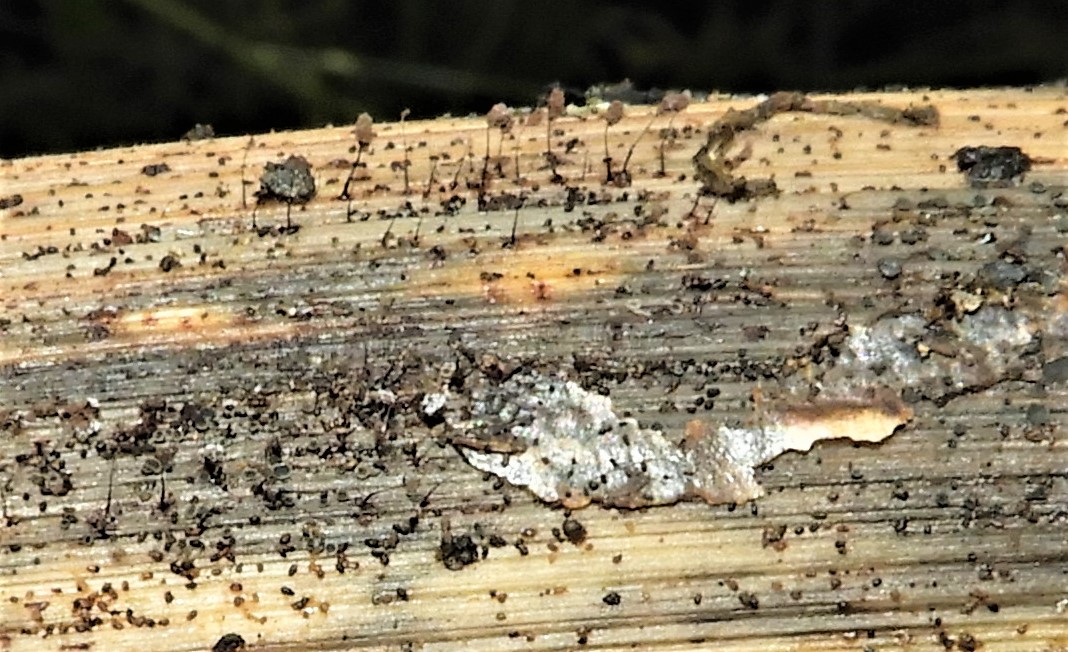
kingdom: Protozoa
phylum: Mycetozoa
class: Myxomycetes
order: Stemonitidales
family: Stemonitidaceae
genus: Comatricha
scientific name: Comatricha
